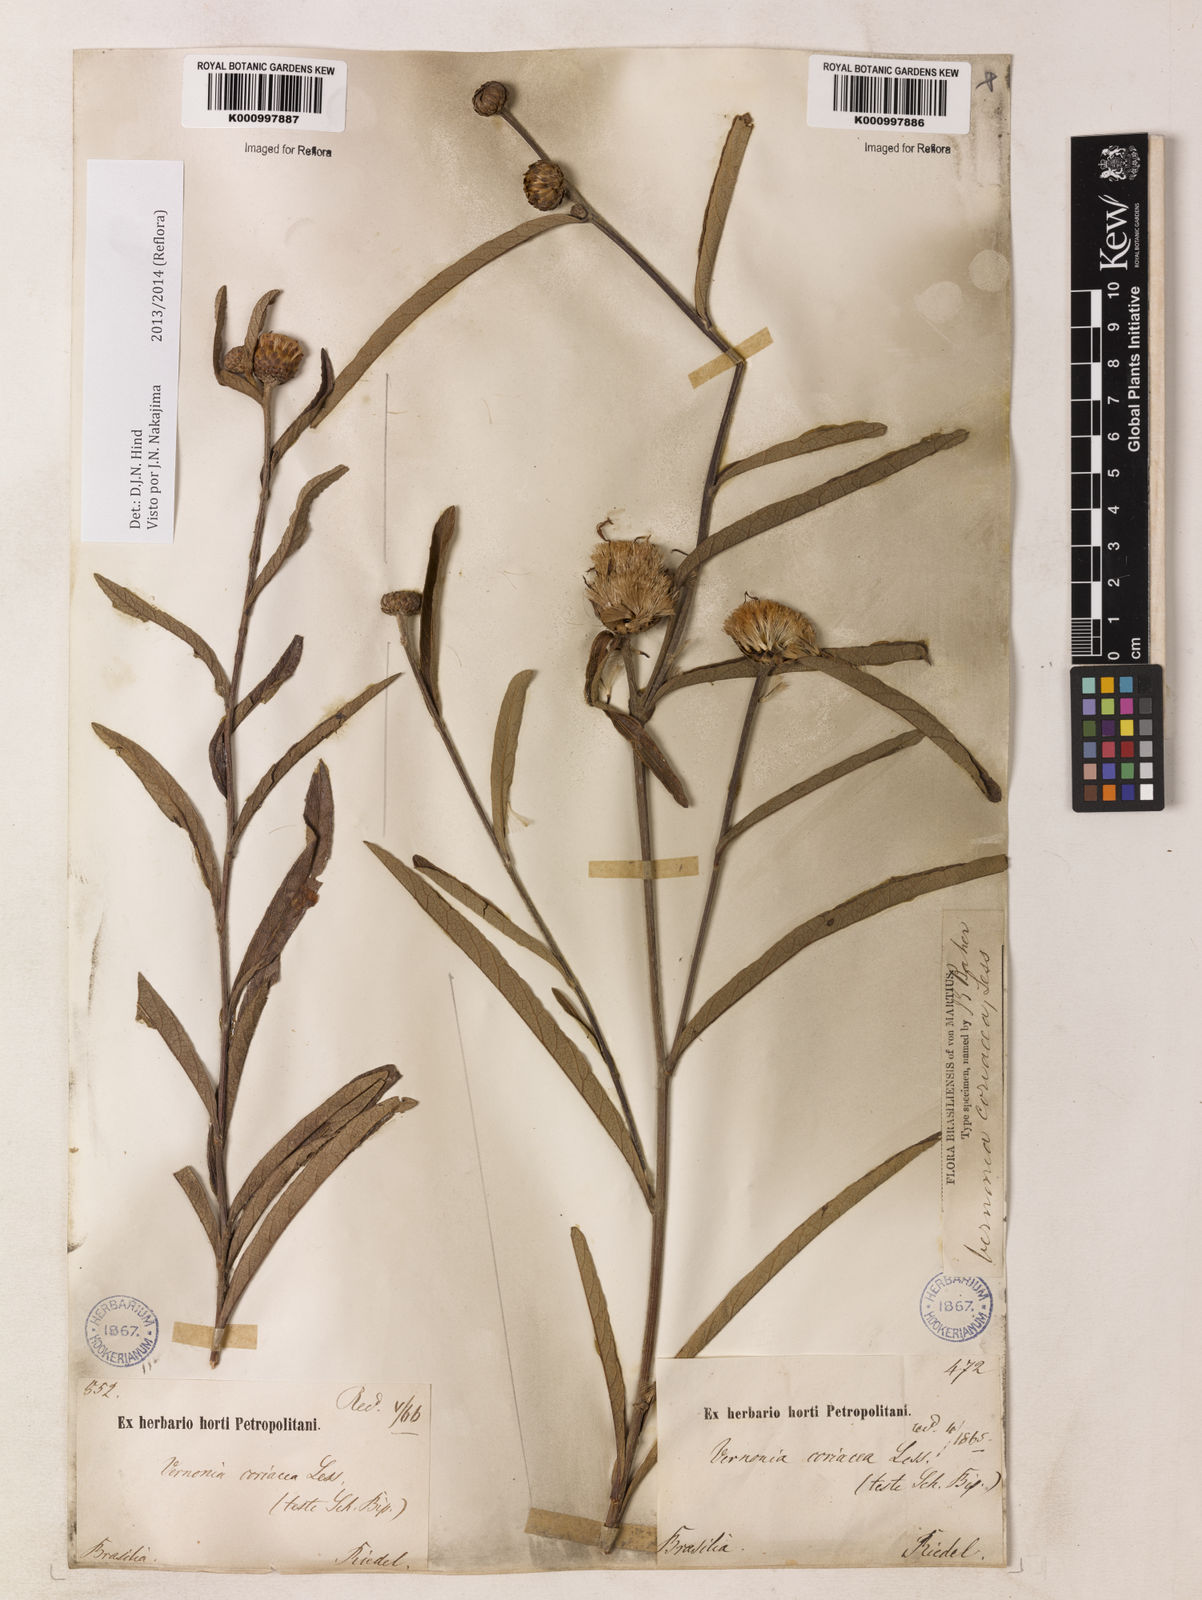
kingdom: Plantae
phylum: Tracheophyta
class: Magnoliopsida
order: Asterales
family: Asteraceae
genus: Lessingianthus
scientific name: Lessingianthus coriaceus
